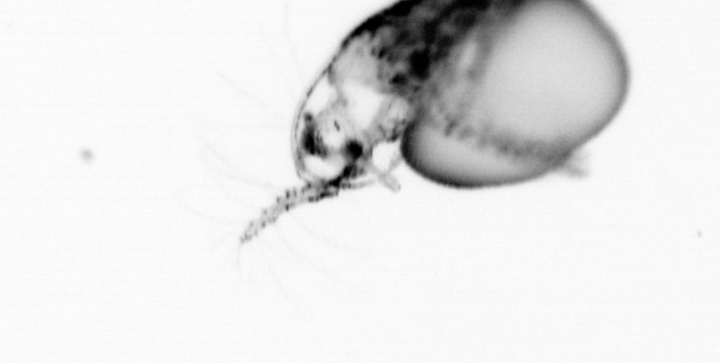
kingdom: Animalia
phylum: Arthropoda
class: Copepoda
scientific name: Copepoda
